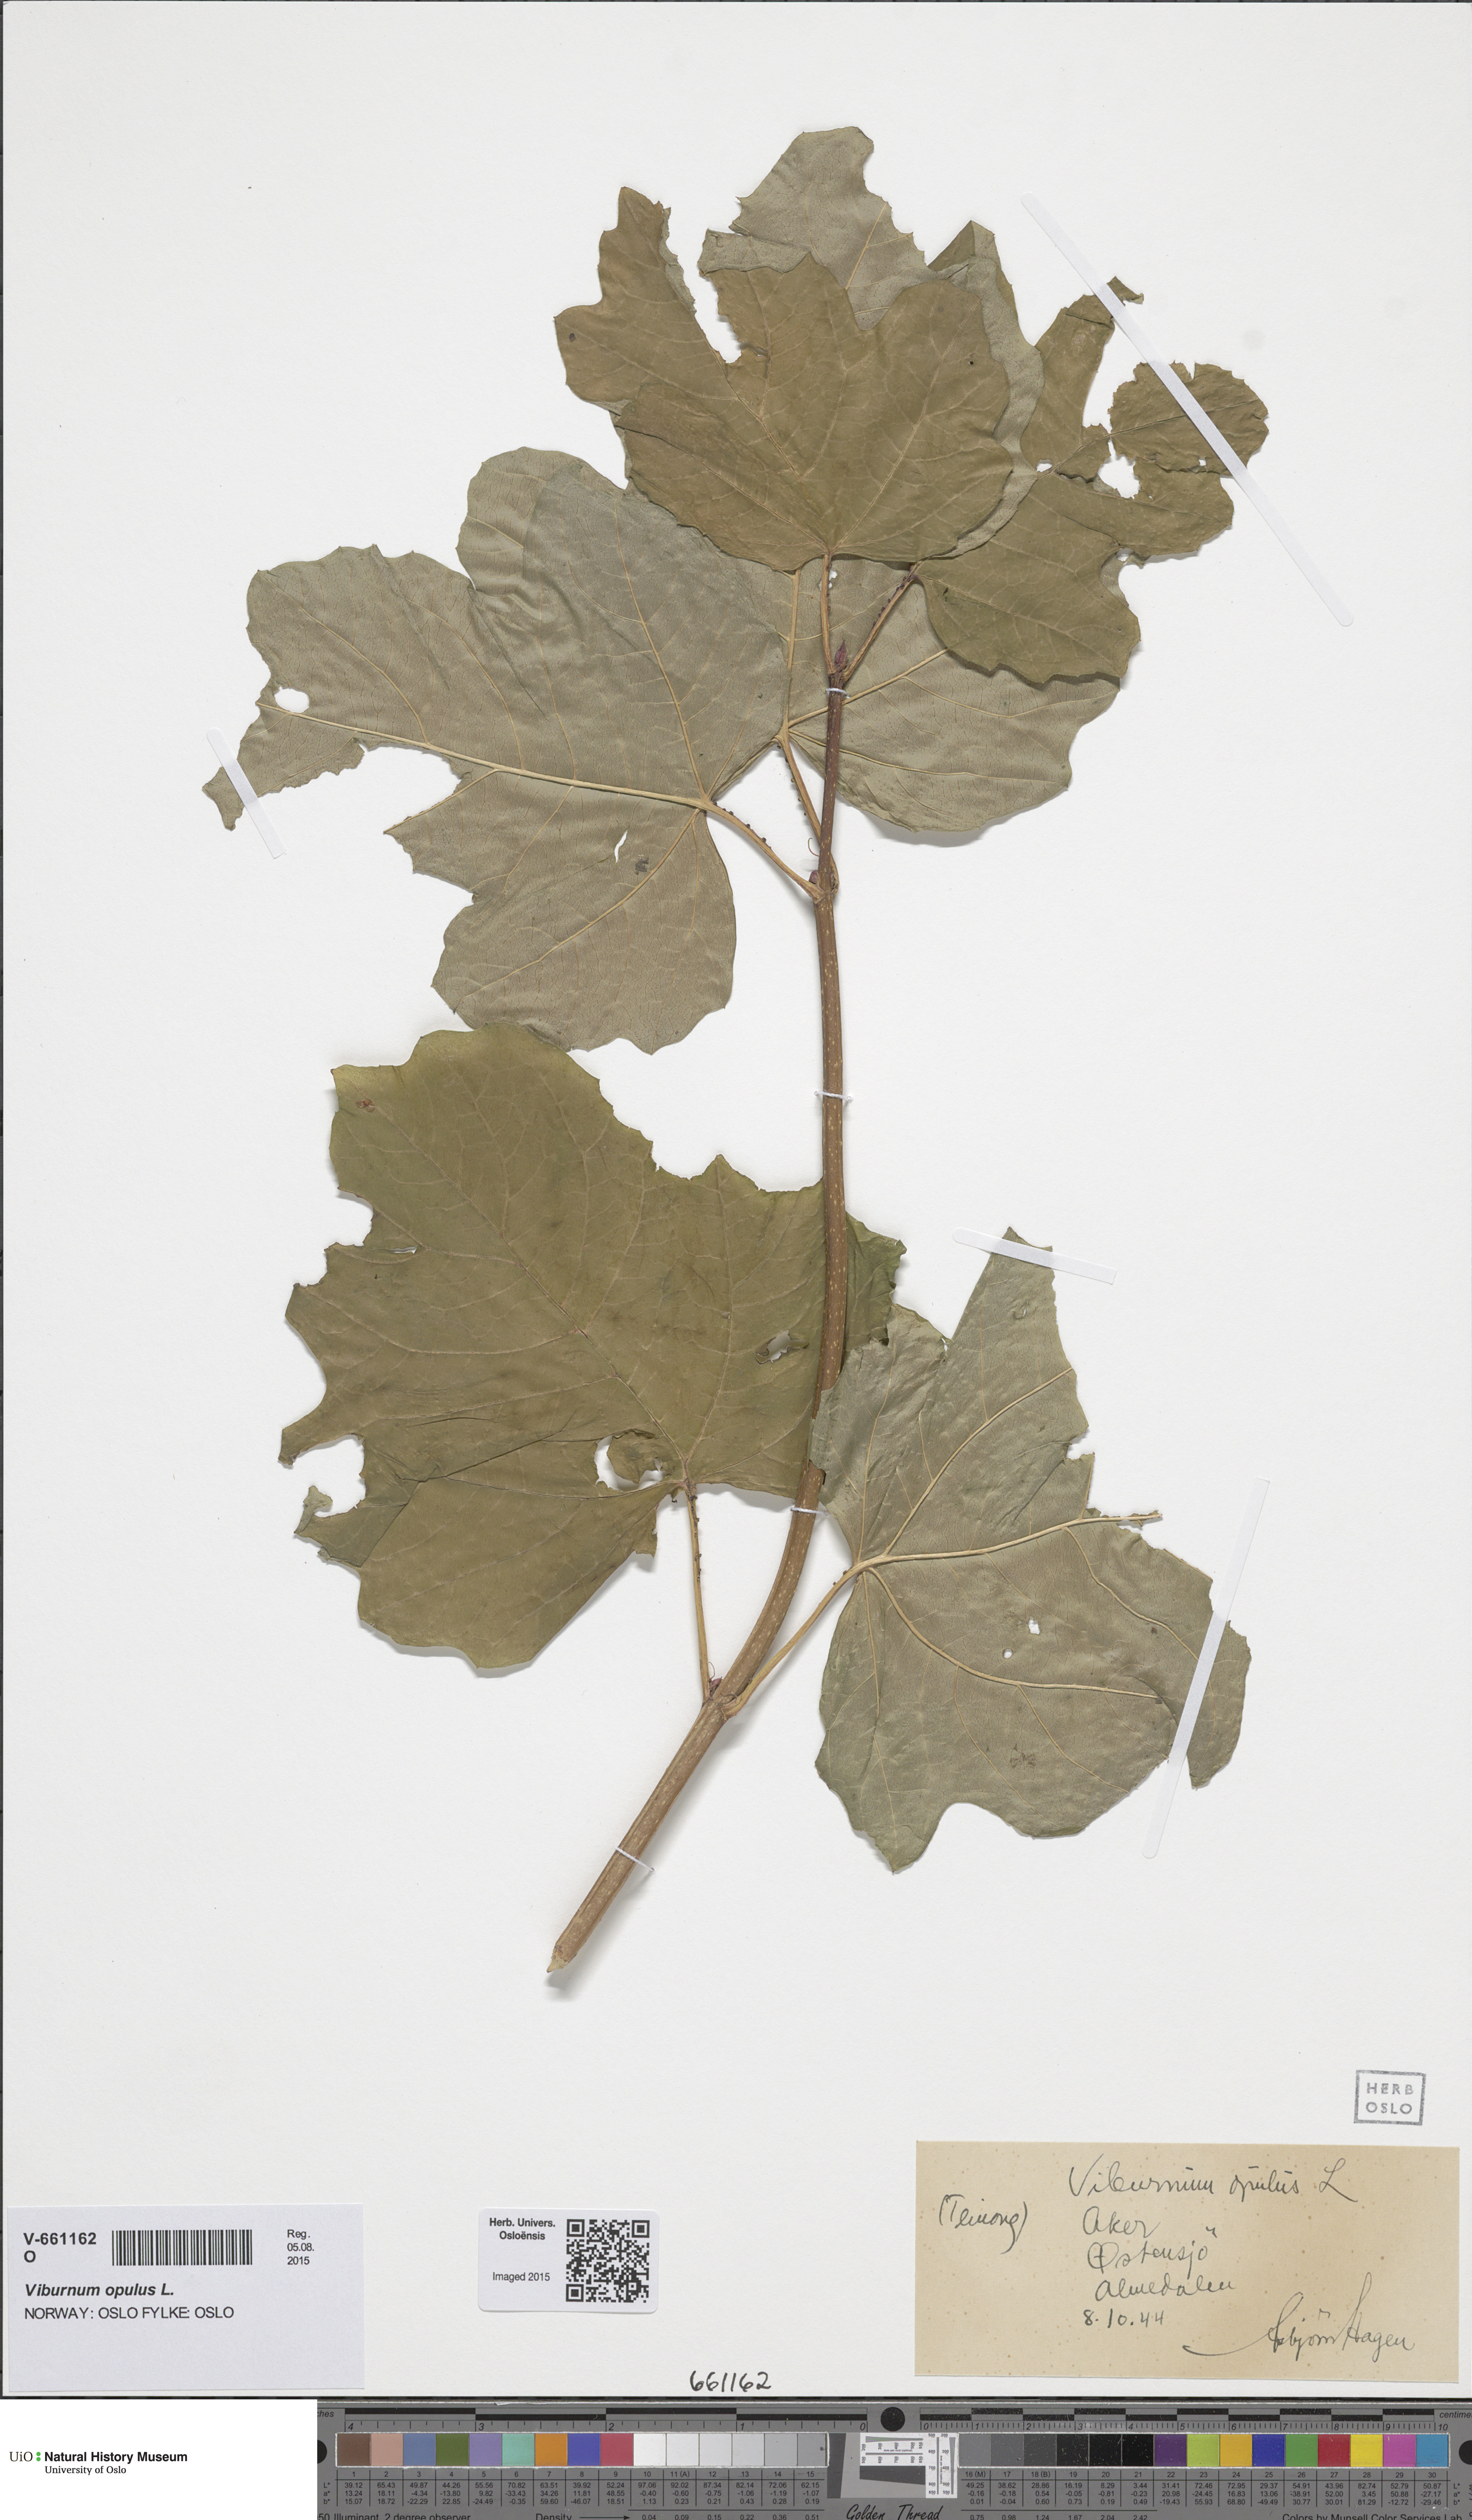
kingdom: Plantae
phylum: Tracheophyta
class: Magnoliopsida
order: Dipsacales
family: Viburnaceae
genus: Viburnum
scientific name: Viburnum opulus
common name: Guelder-rose
